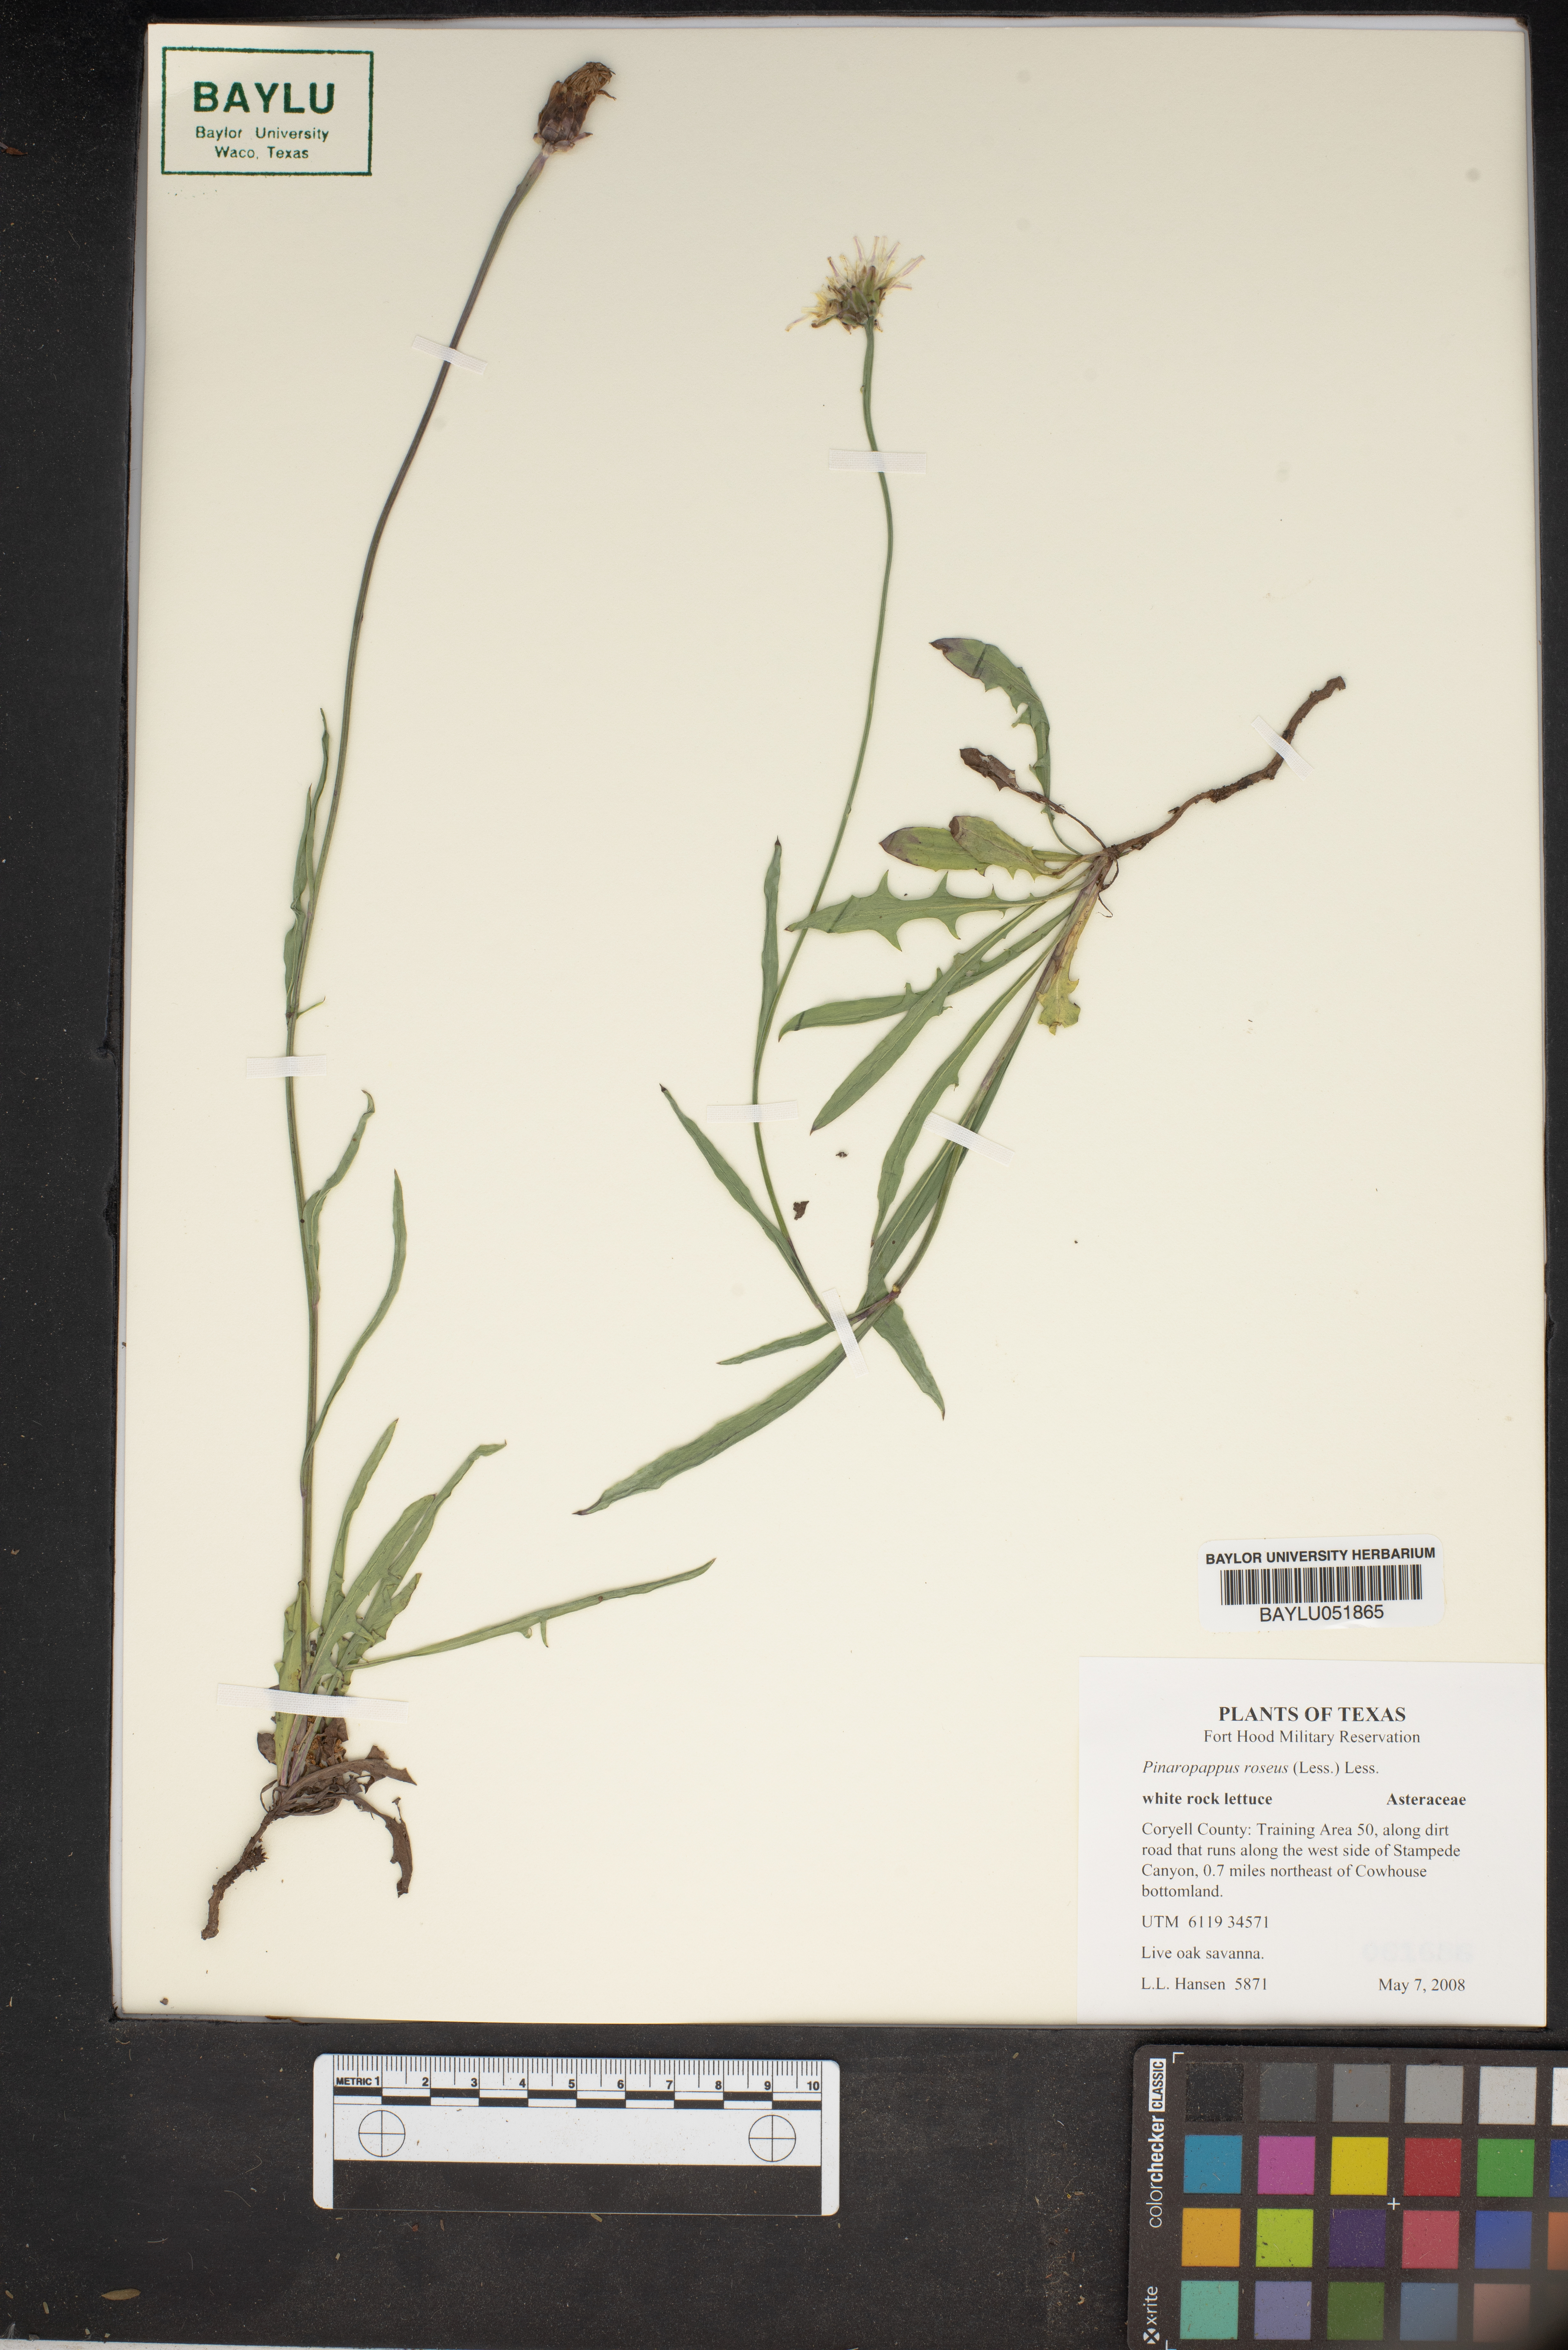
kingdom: Plantae
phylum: Tracheophyta
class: Magnoliopsida
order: Asterales
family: Asteraceae
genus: Pinaropappus
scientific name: Pinaropappus roseus
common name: Rock-lettuce
